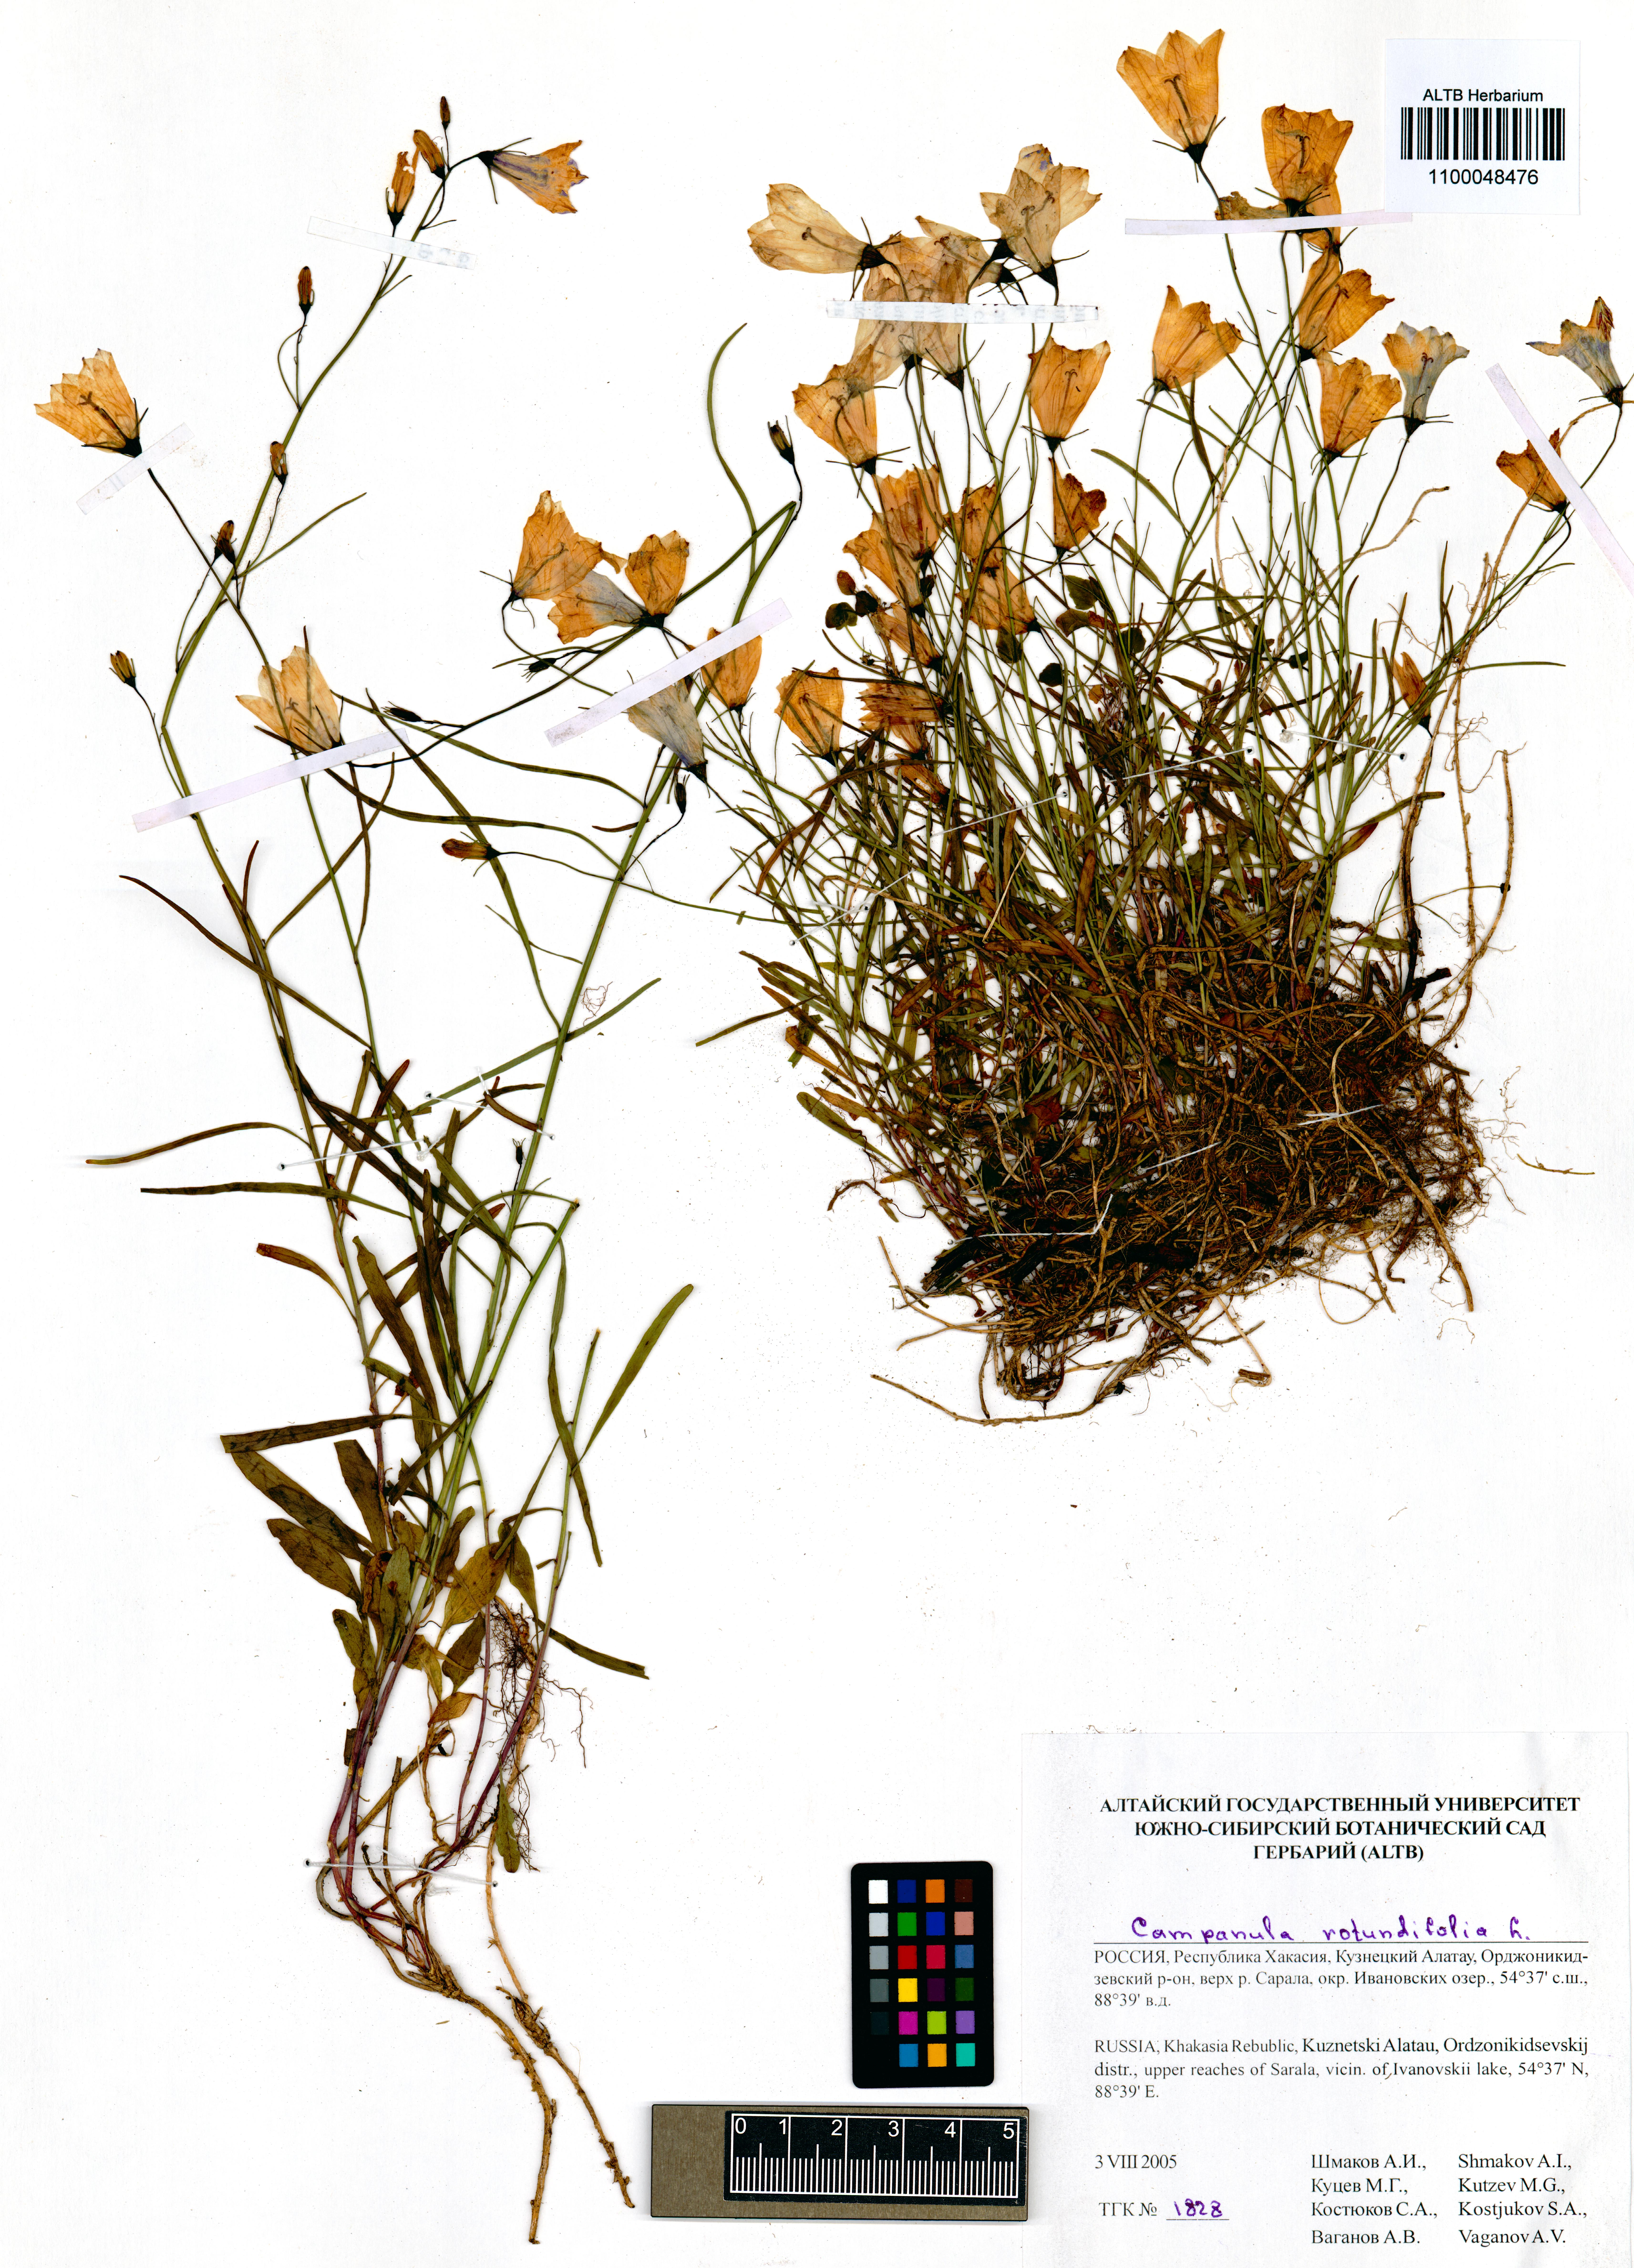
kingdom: Plantae
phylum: Tracheophyta
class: Magnoliopsida
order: Asterales
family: Campanulaceae
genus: Campanula
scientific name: Campanula rotundifolia
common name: Harebell
